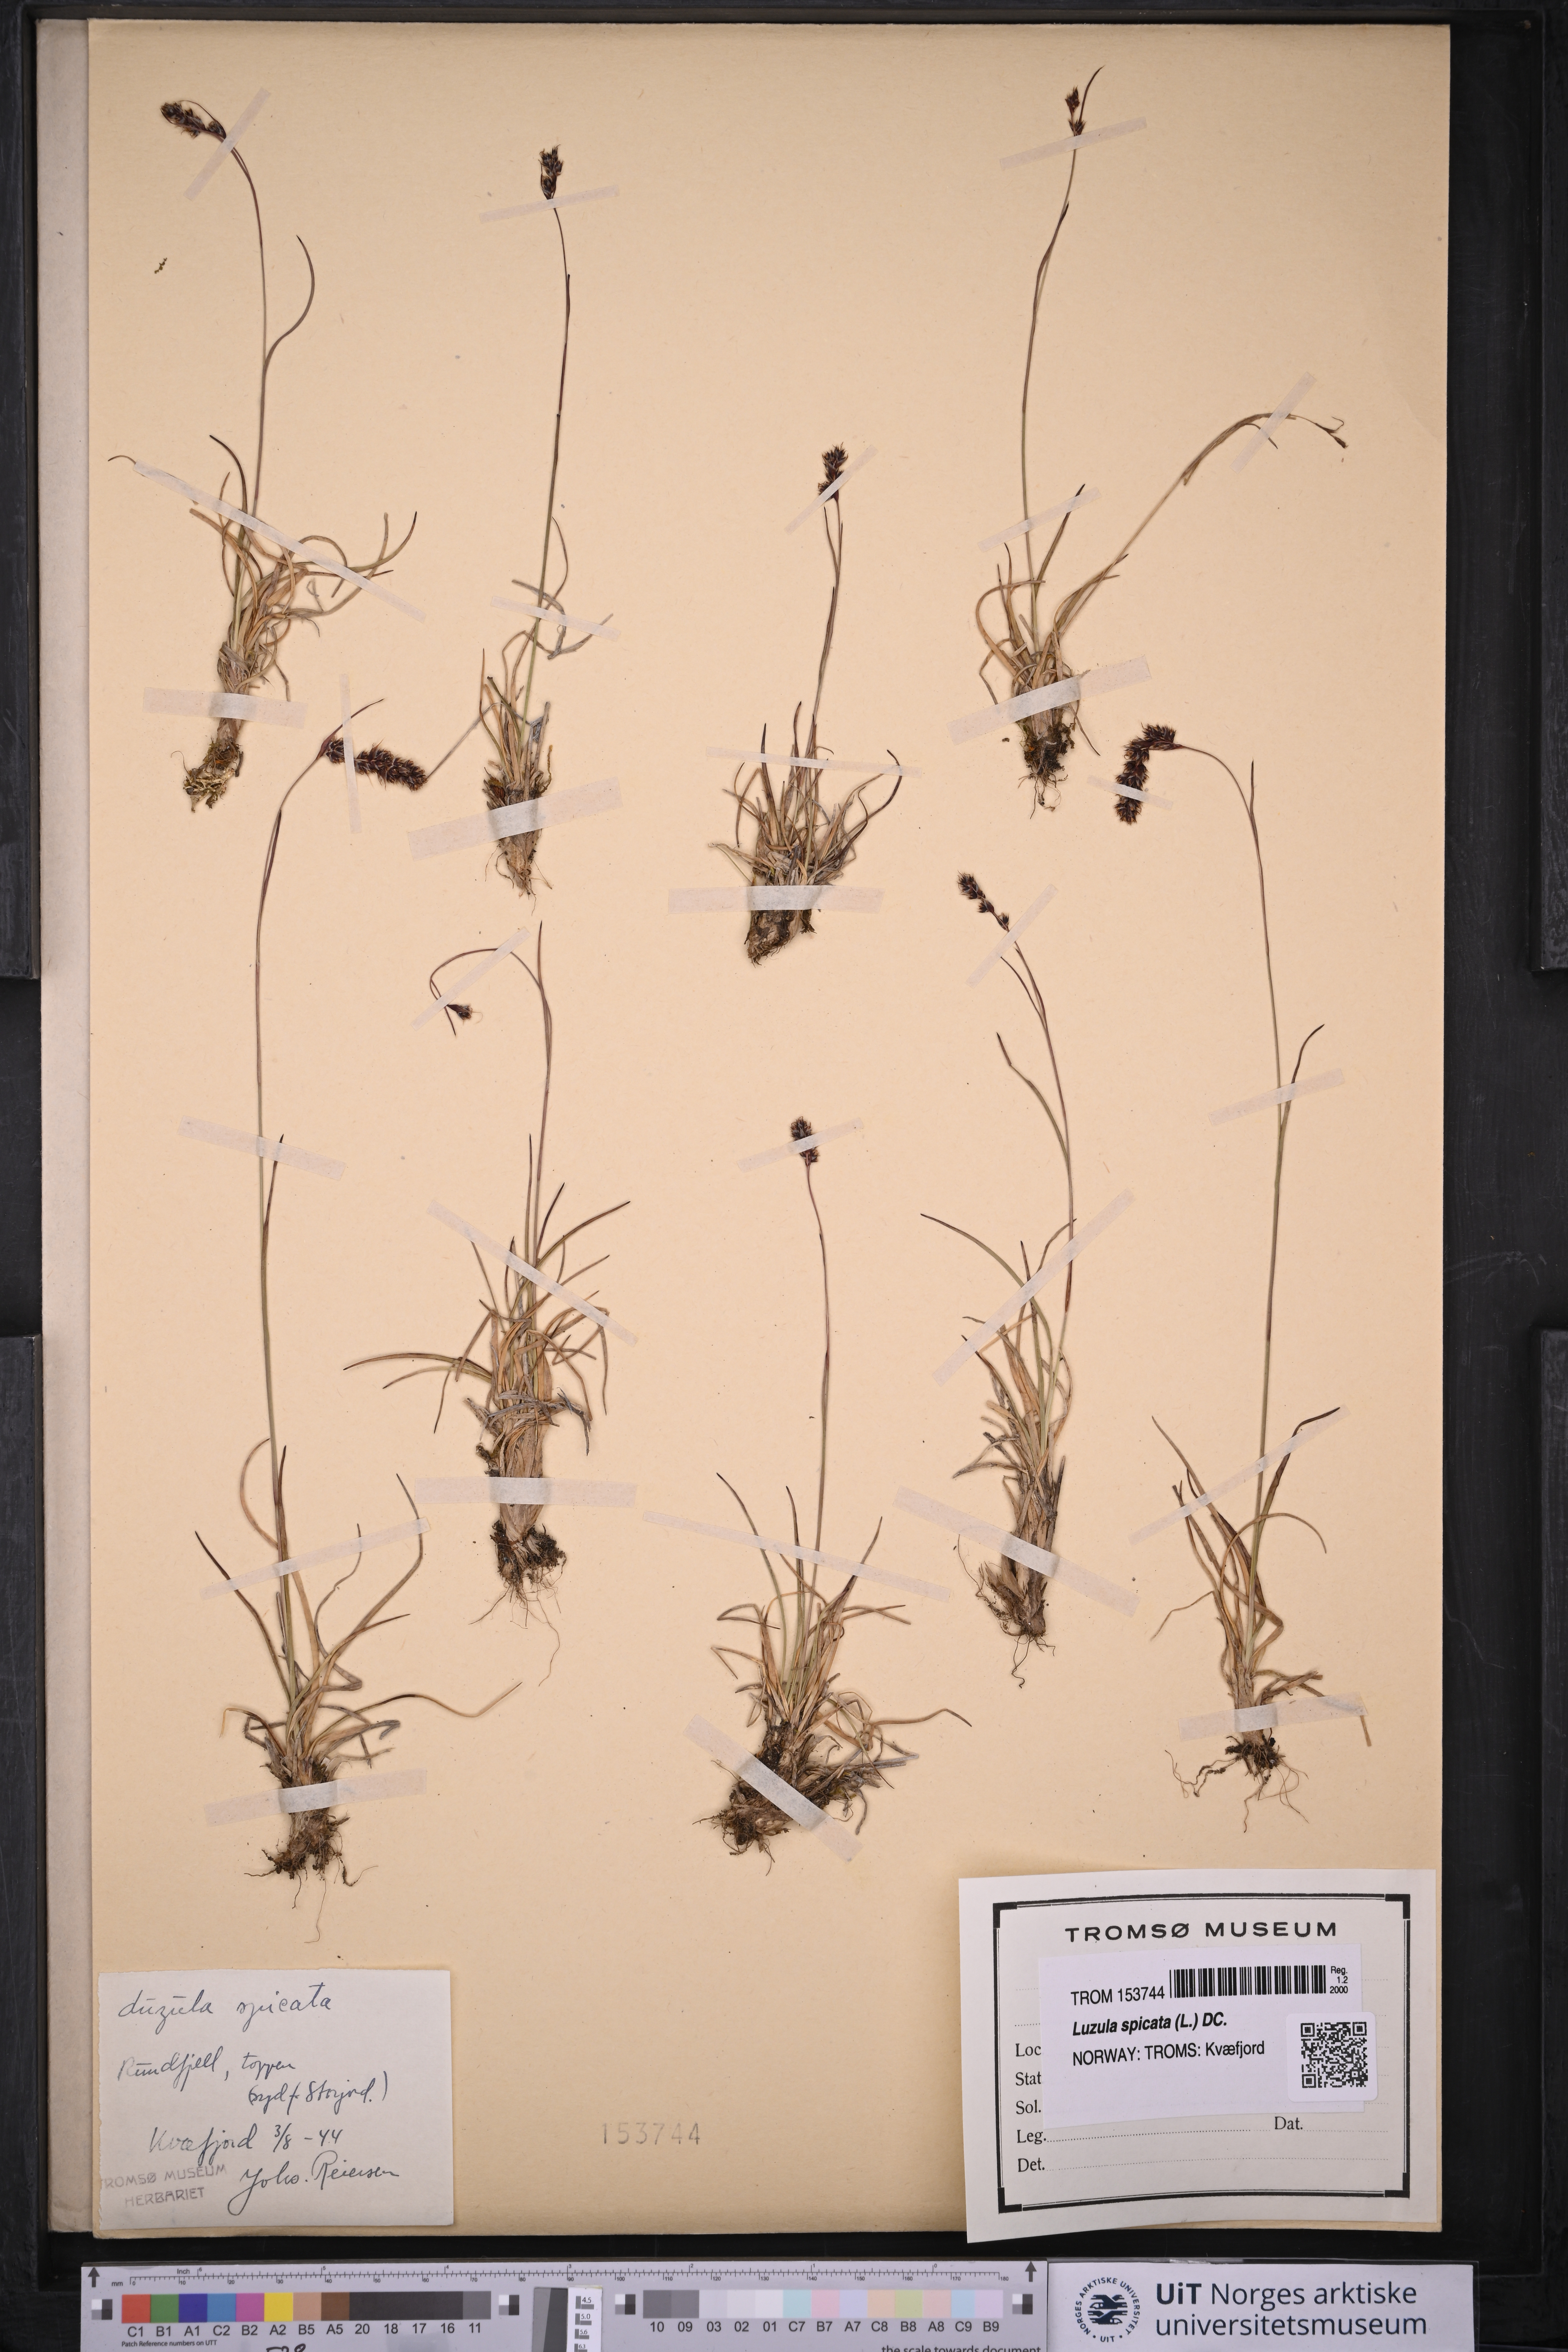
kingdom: Plantae
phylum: Tracheophyta
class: Liliopsida
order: Poales
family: Juncaceae
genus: Luzula
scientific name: Luzula spicata
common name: Spiked wood-rush
